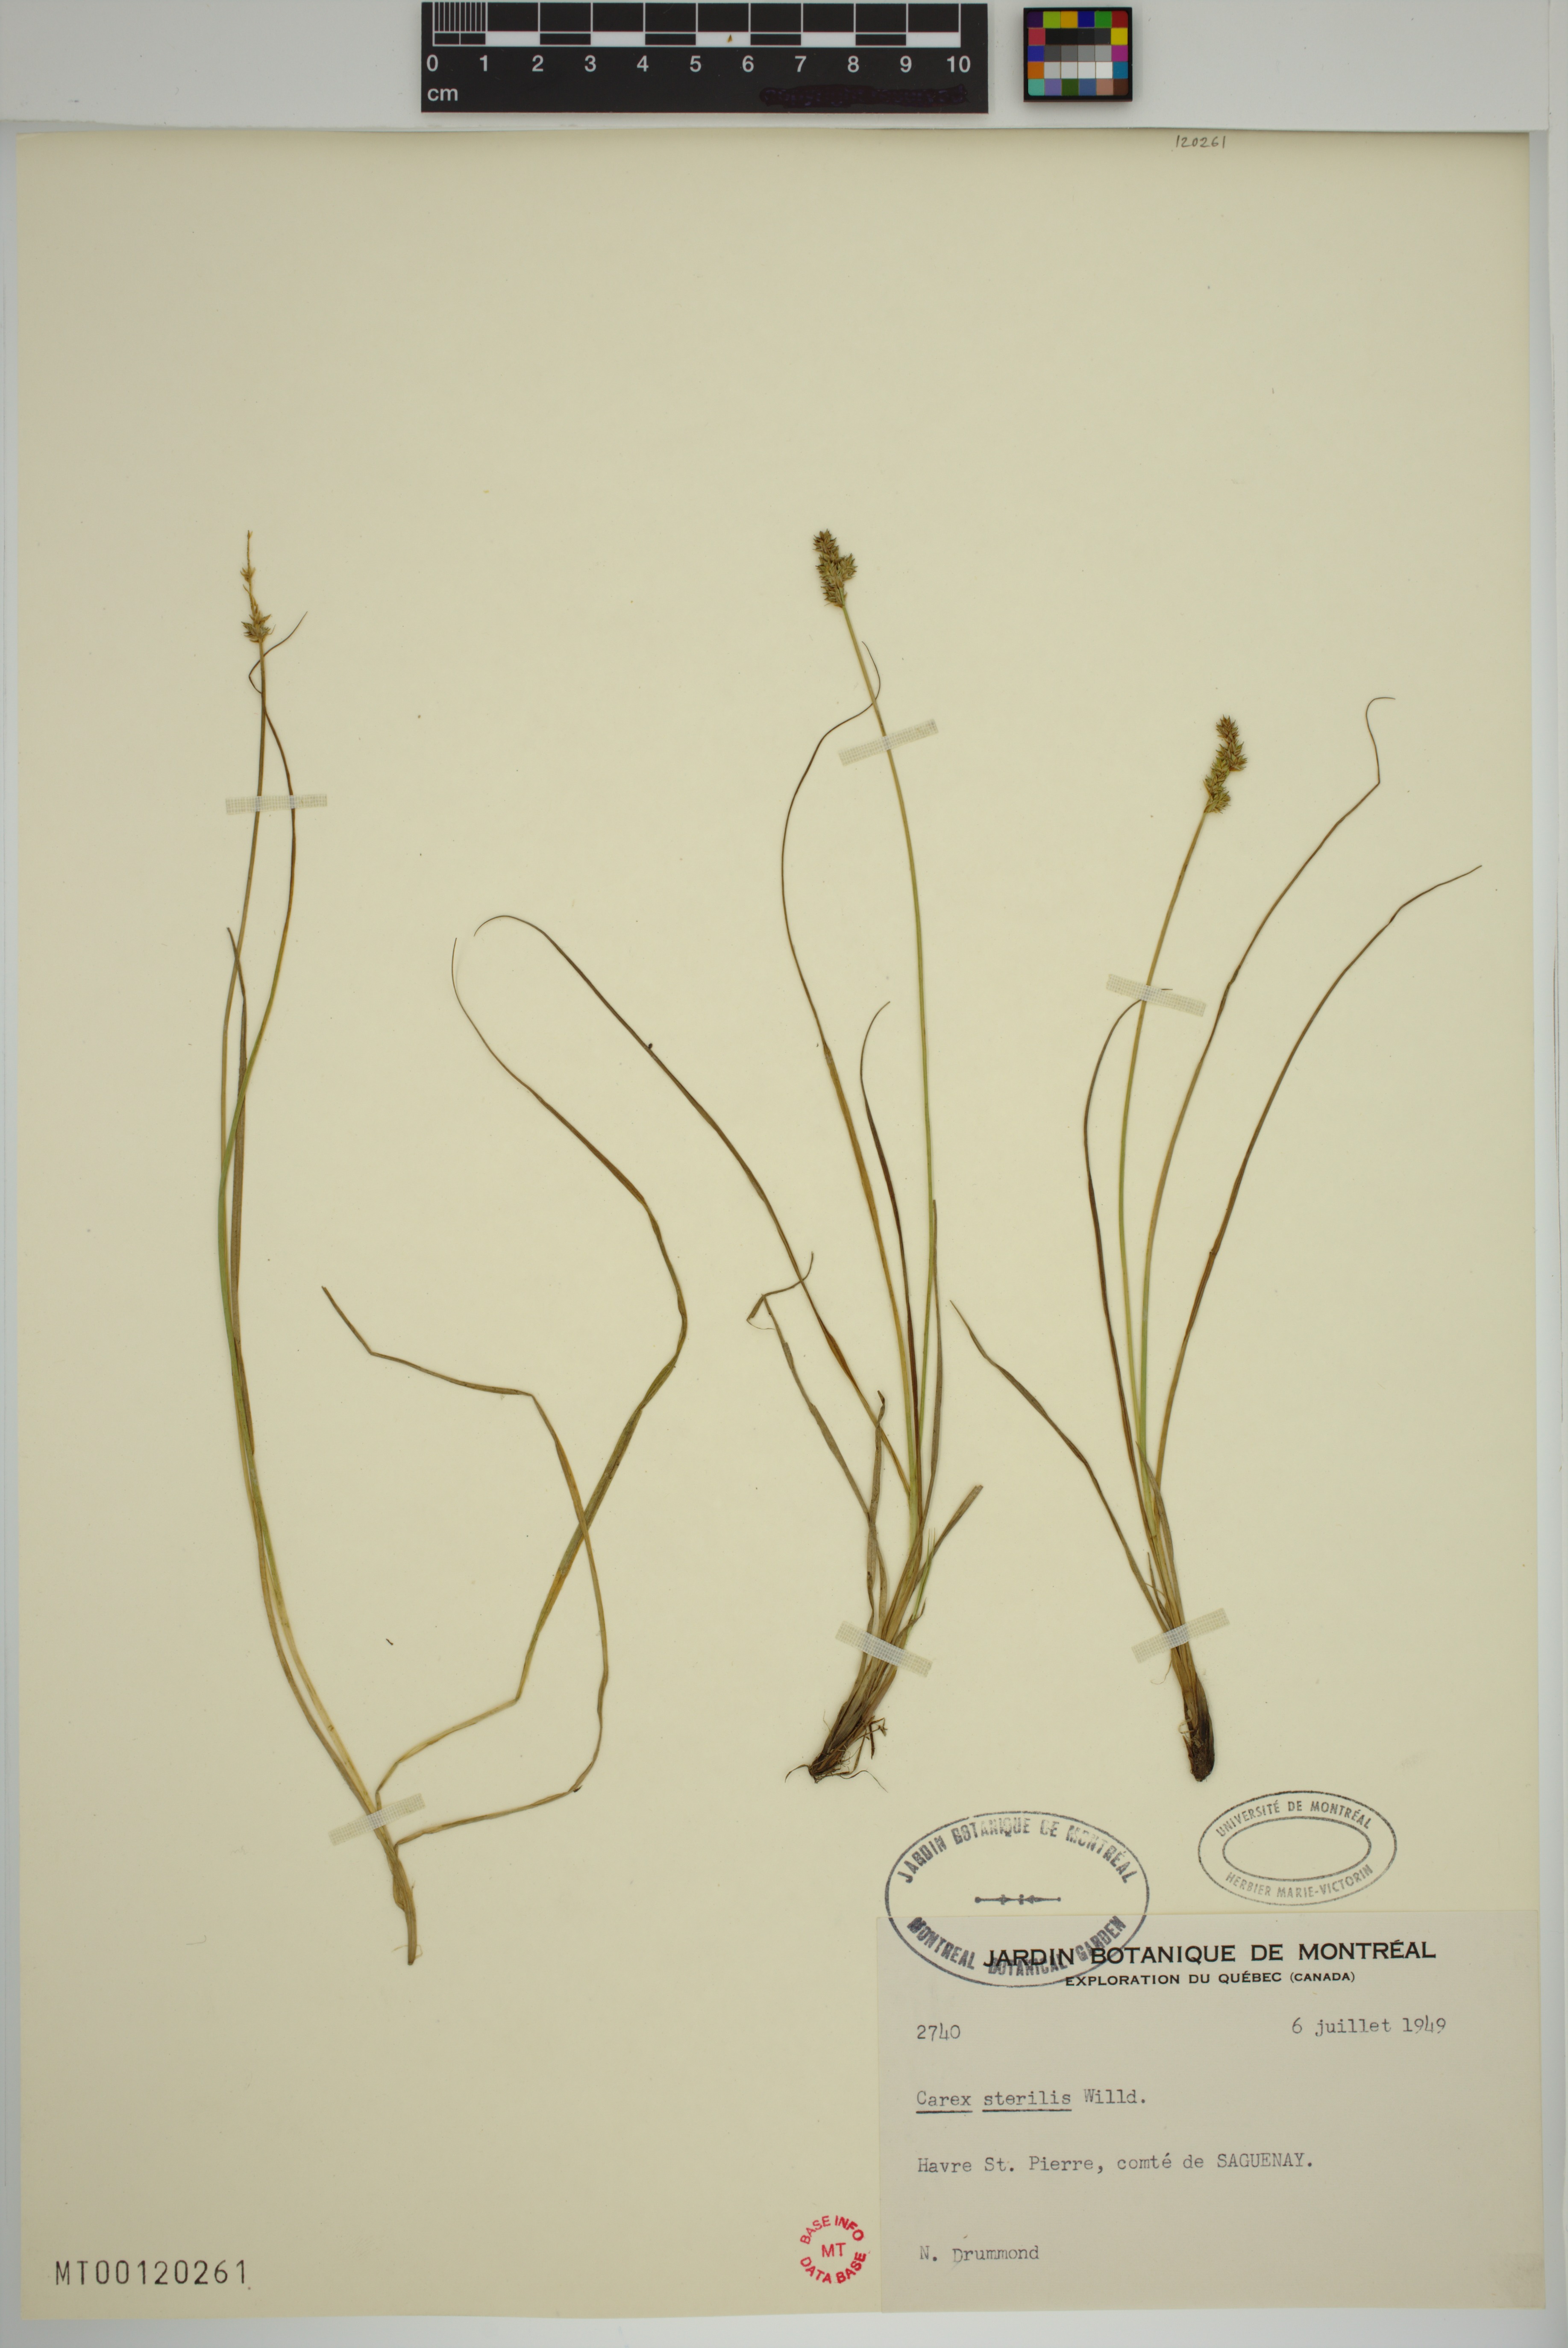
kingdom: Plantae
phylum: Tracheophyta
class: Liliopsida
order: Poales
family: Cyperaceae
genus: Carex
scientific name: Carex sterilis
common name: Dioecious sedge
